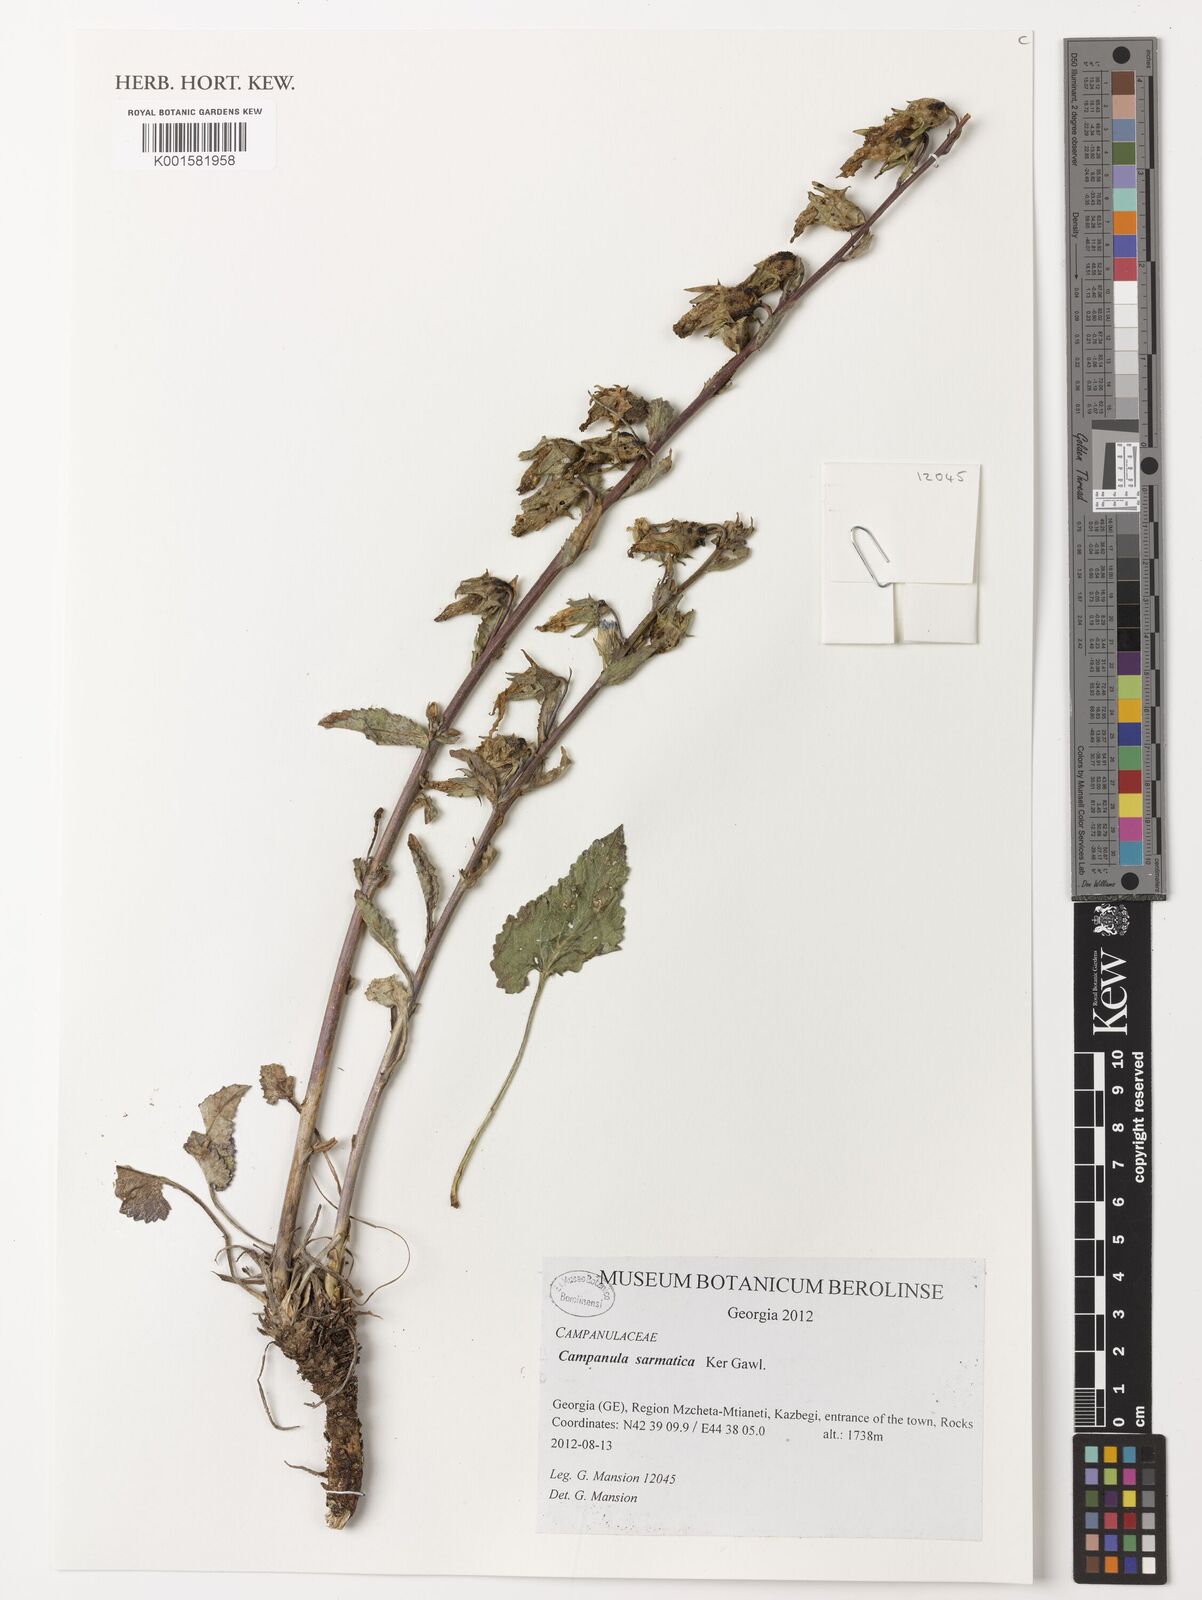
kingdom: Plantae
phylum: Tracheophyta
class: Magnoliopsida
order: Asterales
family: Campanulaceae
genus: Campanula
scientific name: Campanula sarmatica
